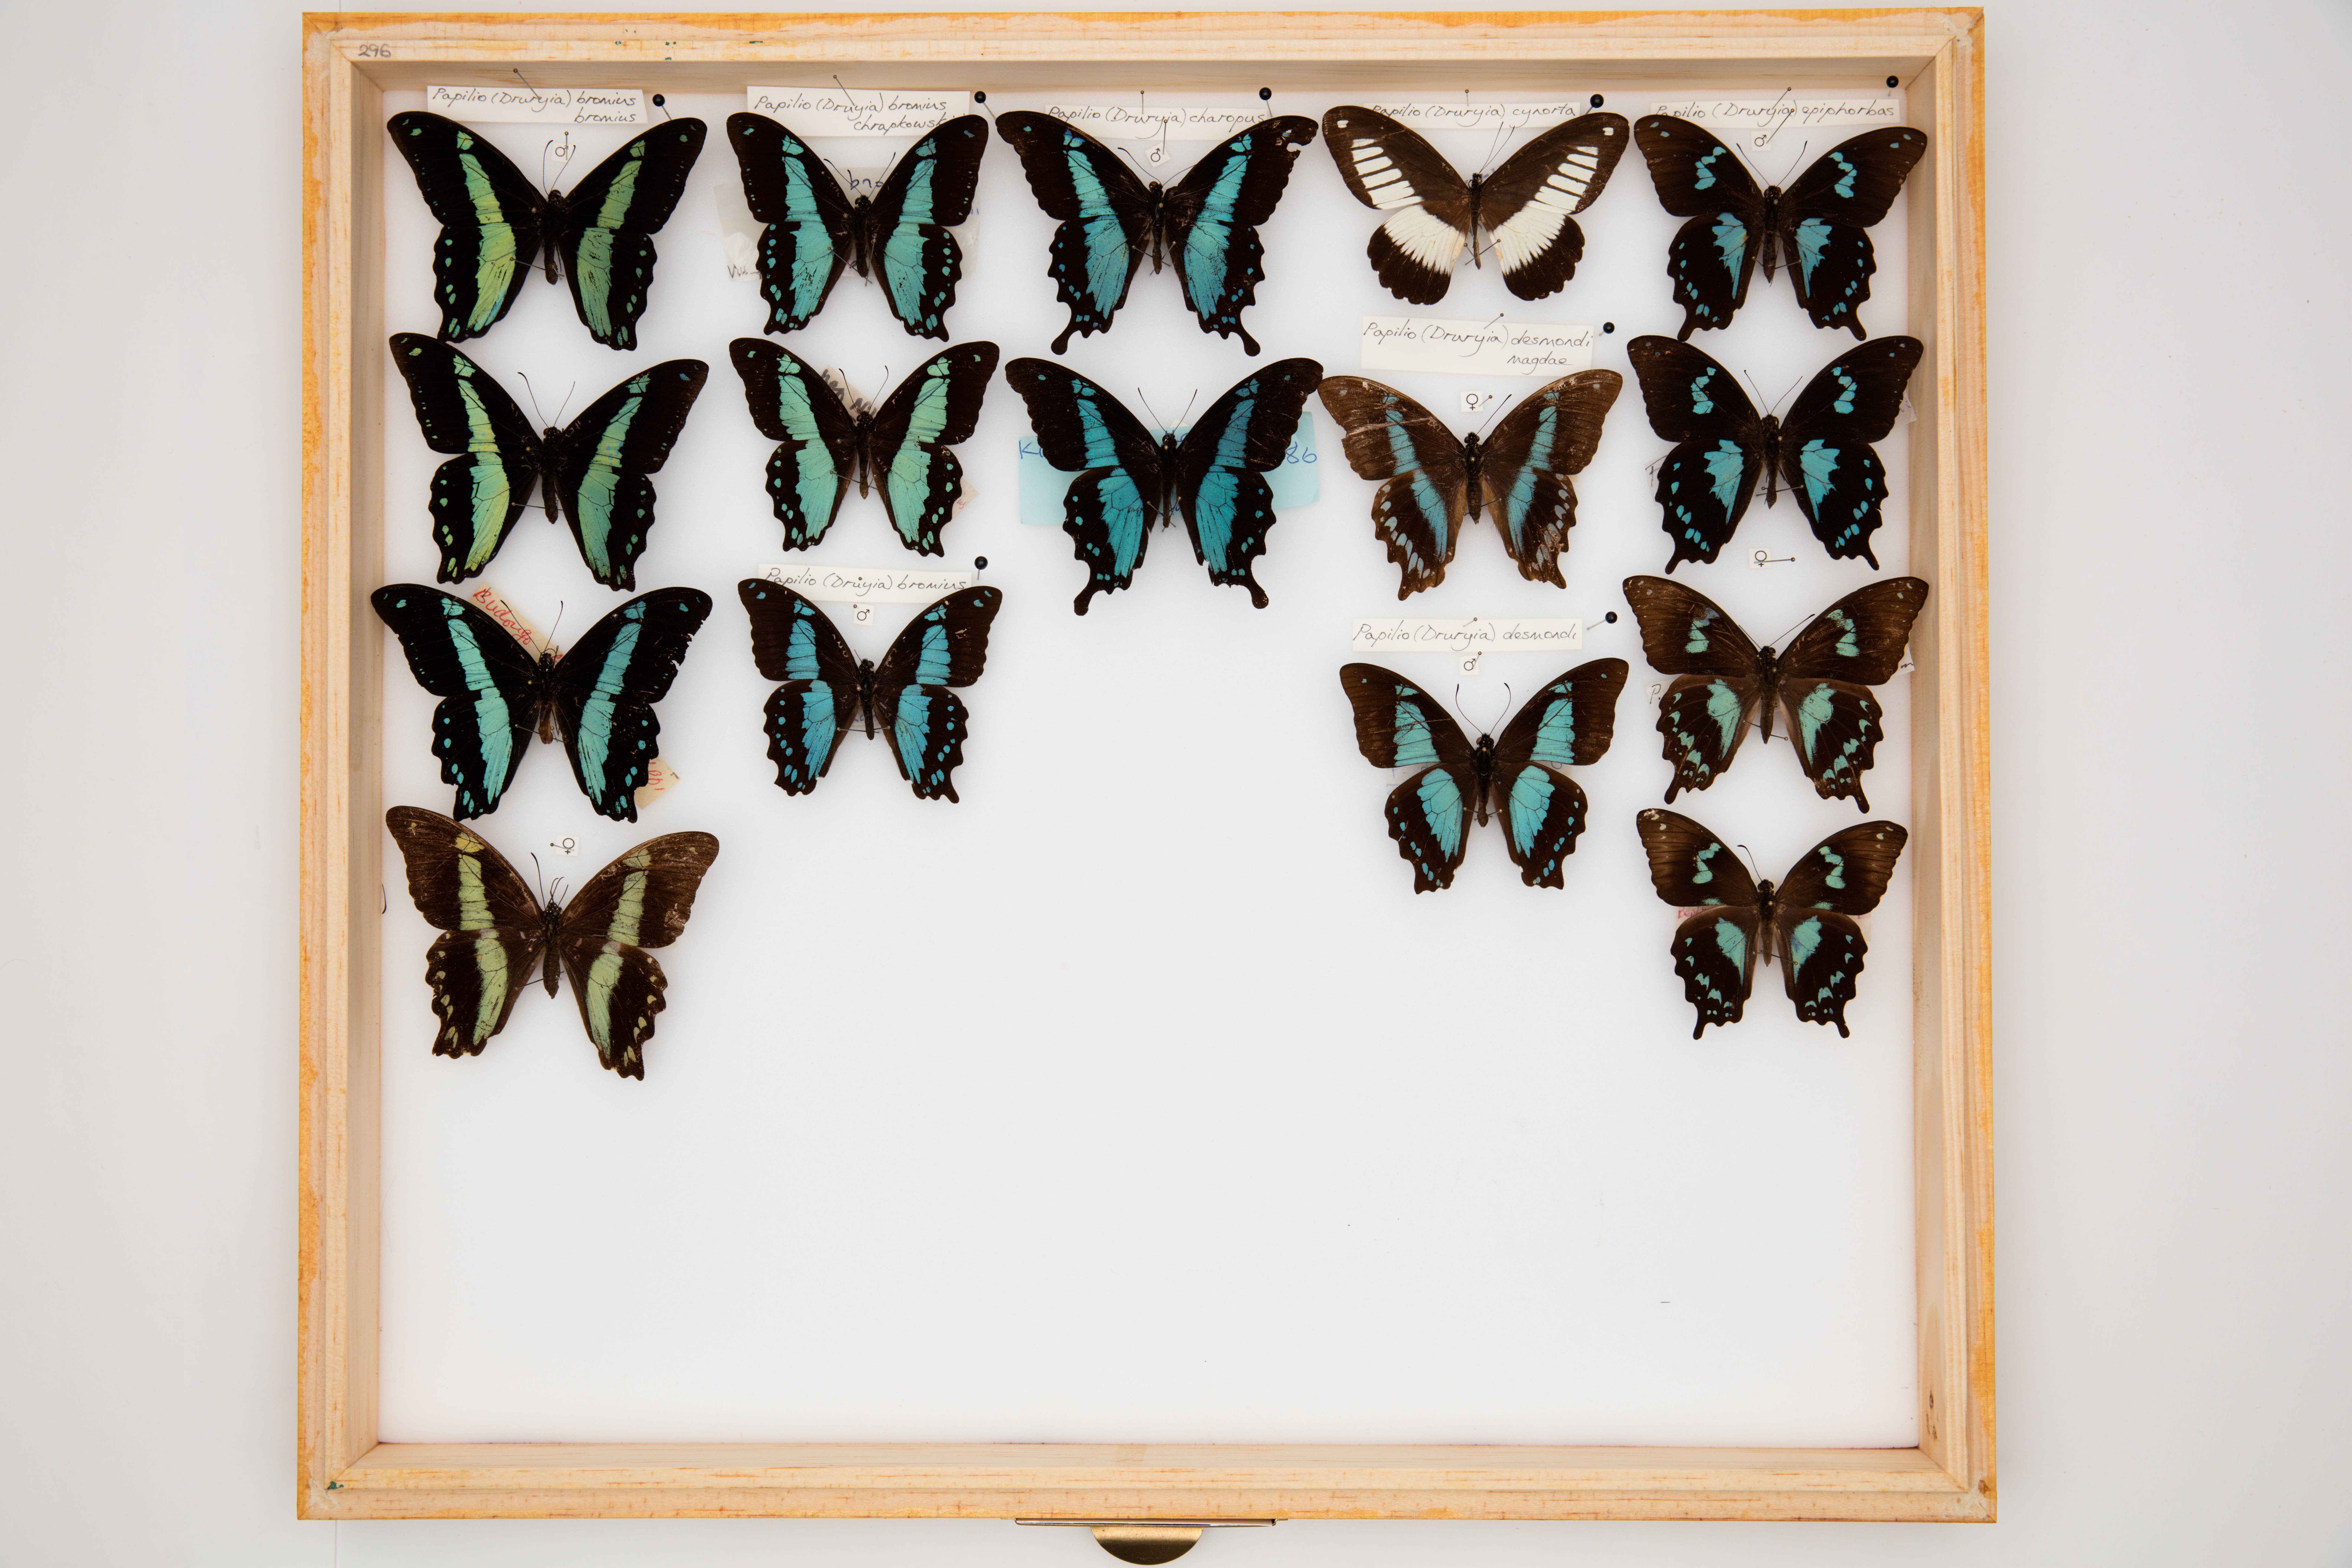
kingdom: Animalia
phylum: Arthropoda
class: Insecta
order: Lepidoptera
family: Papilionidae
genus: Papilio
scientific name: Papilio desmondi
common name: Desmond's green-banded swallowtail
